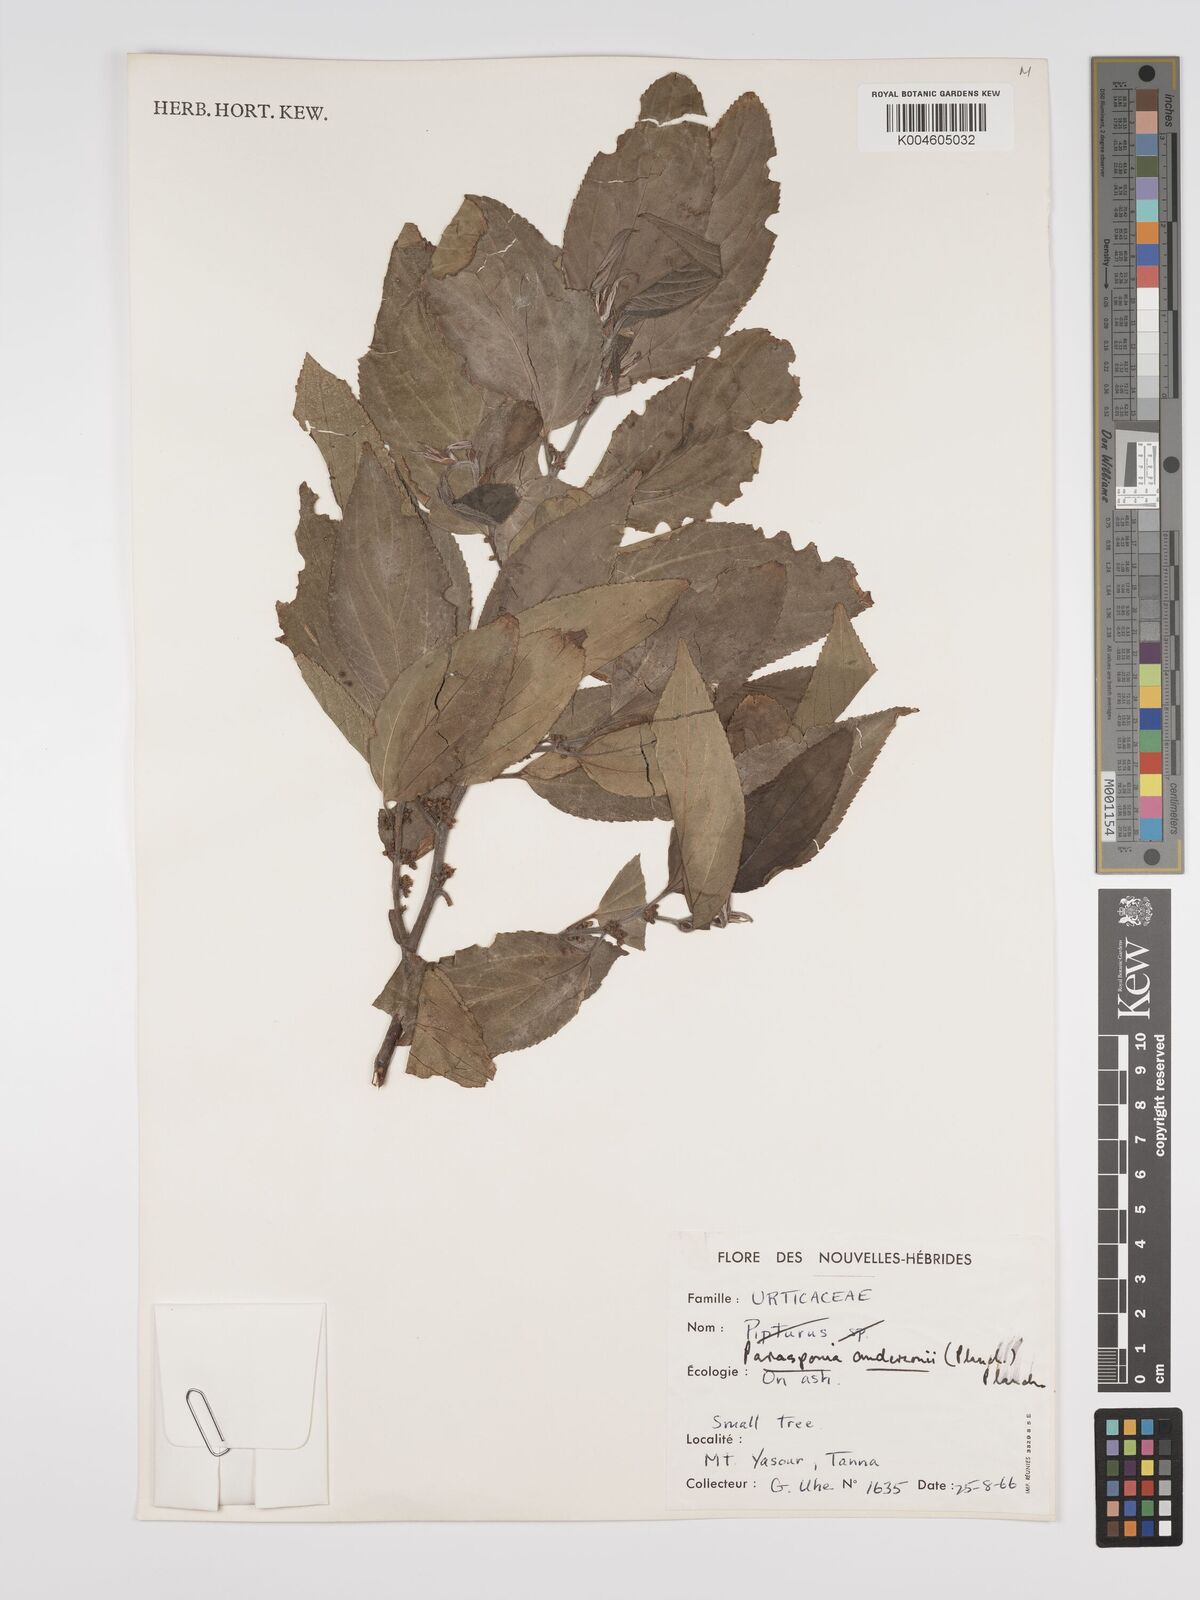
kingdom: Plantae
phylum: Tracheophyta
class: Magnoliopsida
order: Rosales
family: Cannabaceae
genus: Trema
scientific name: Trema andersonii
